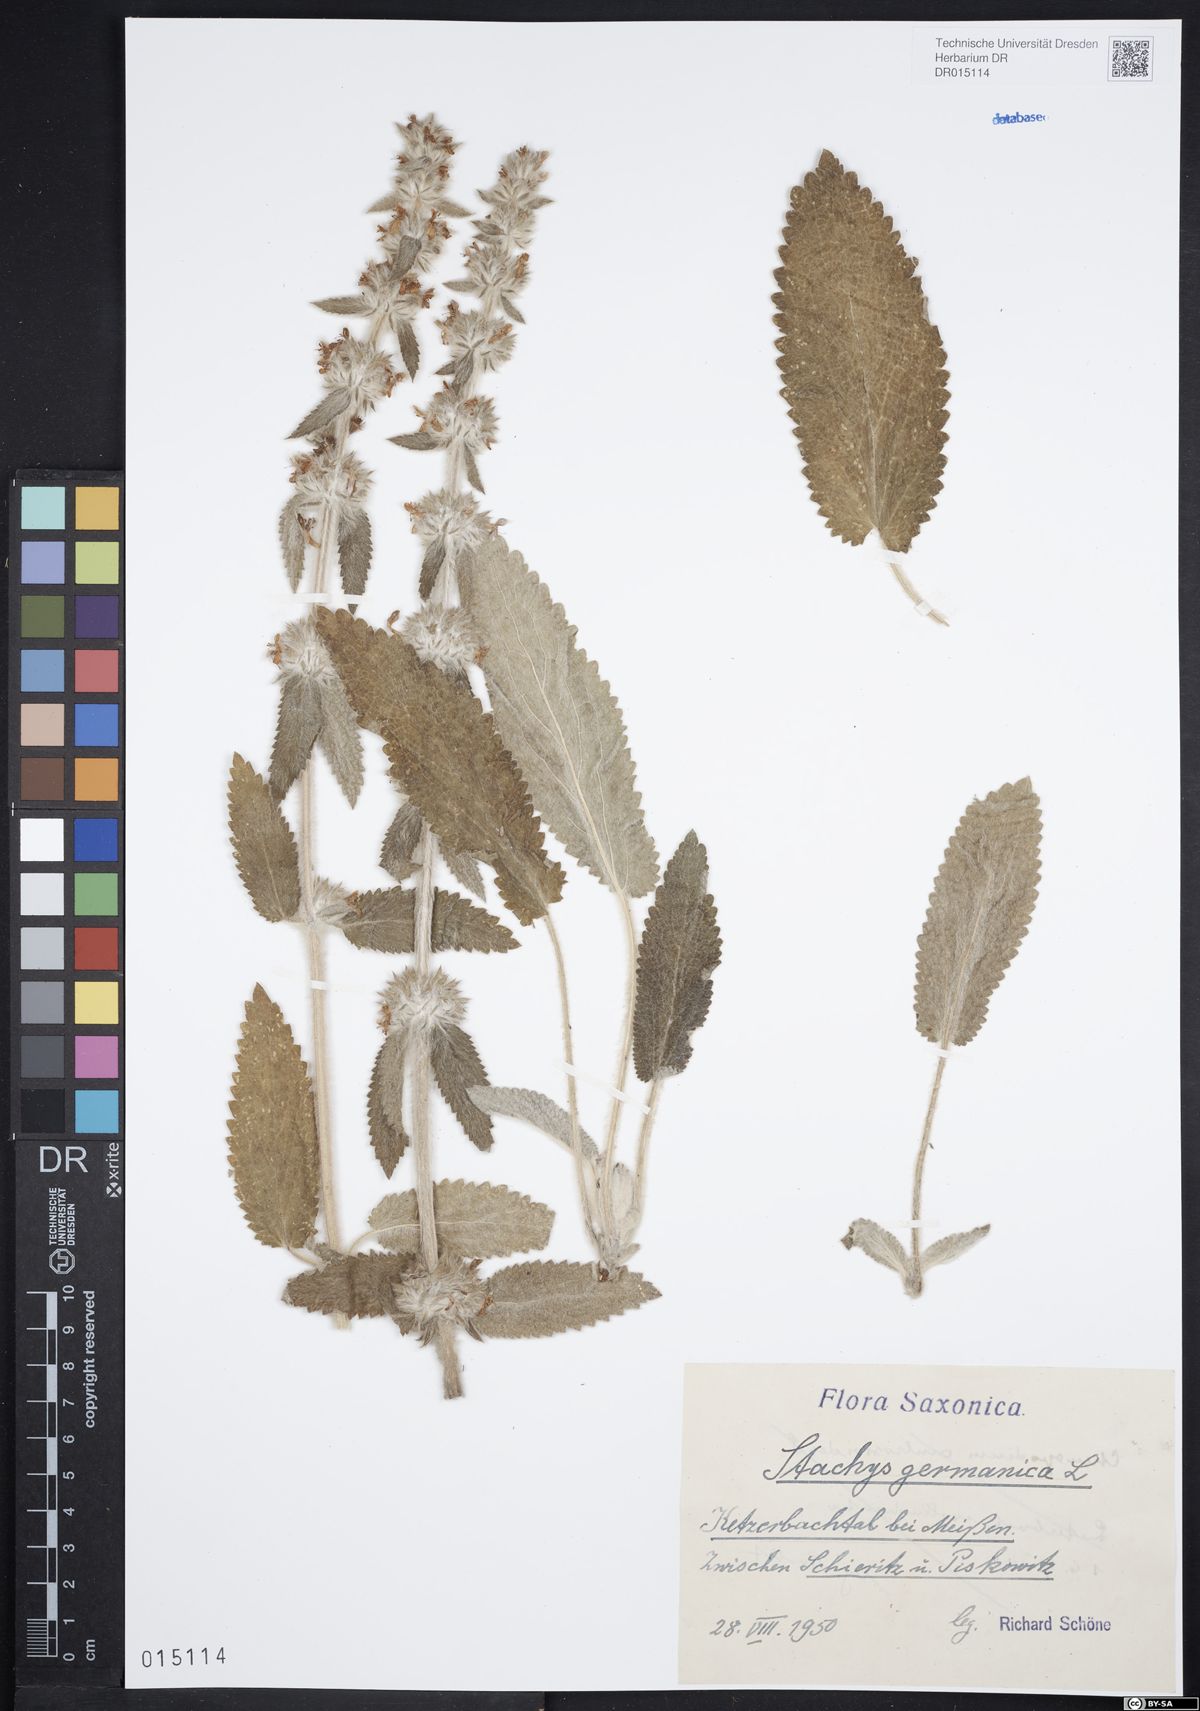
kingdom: Plantae
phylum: Tracheophyta
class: Magnoliopsida
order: Lamiales
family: Lamiaceae
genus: Stachys
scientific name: Stachys germanica
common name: Downy woundwort
